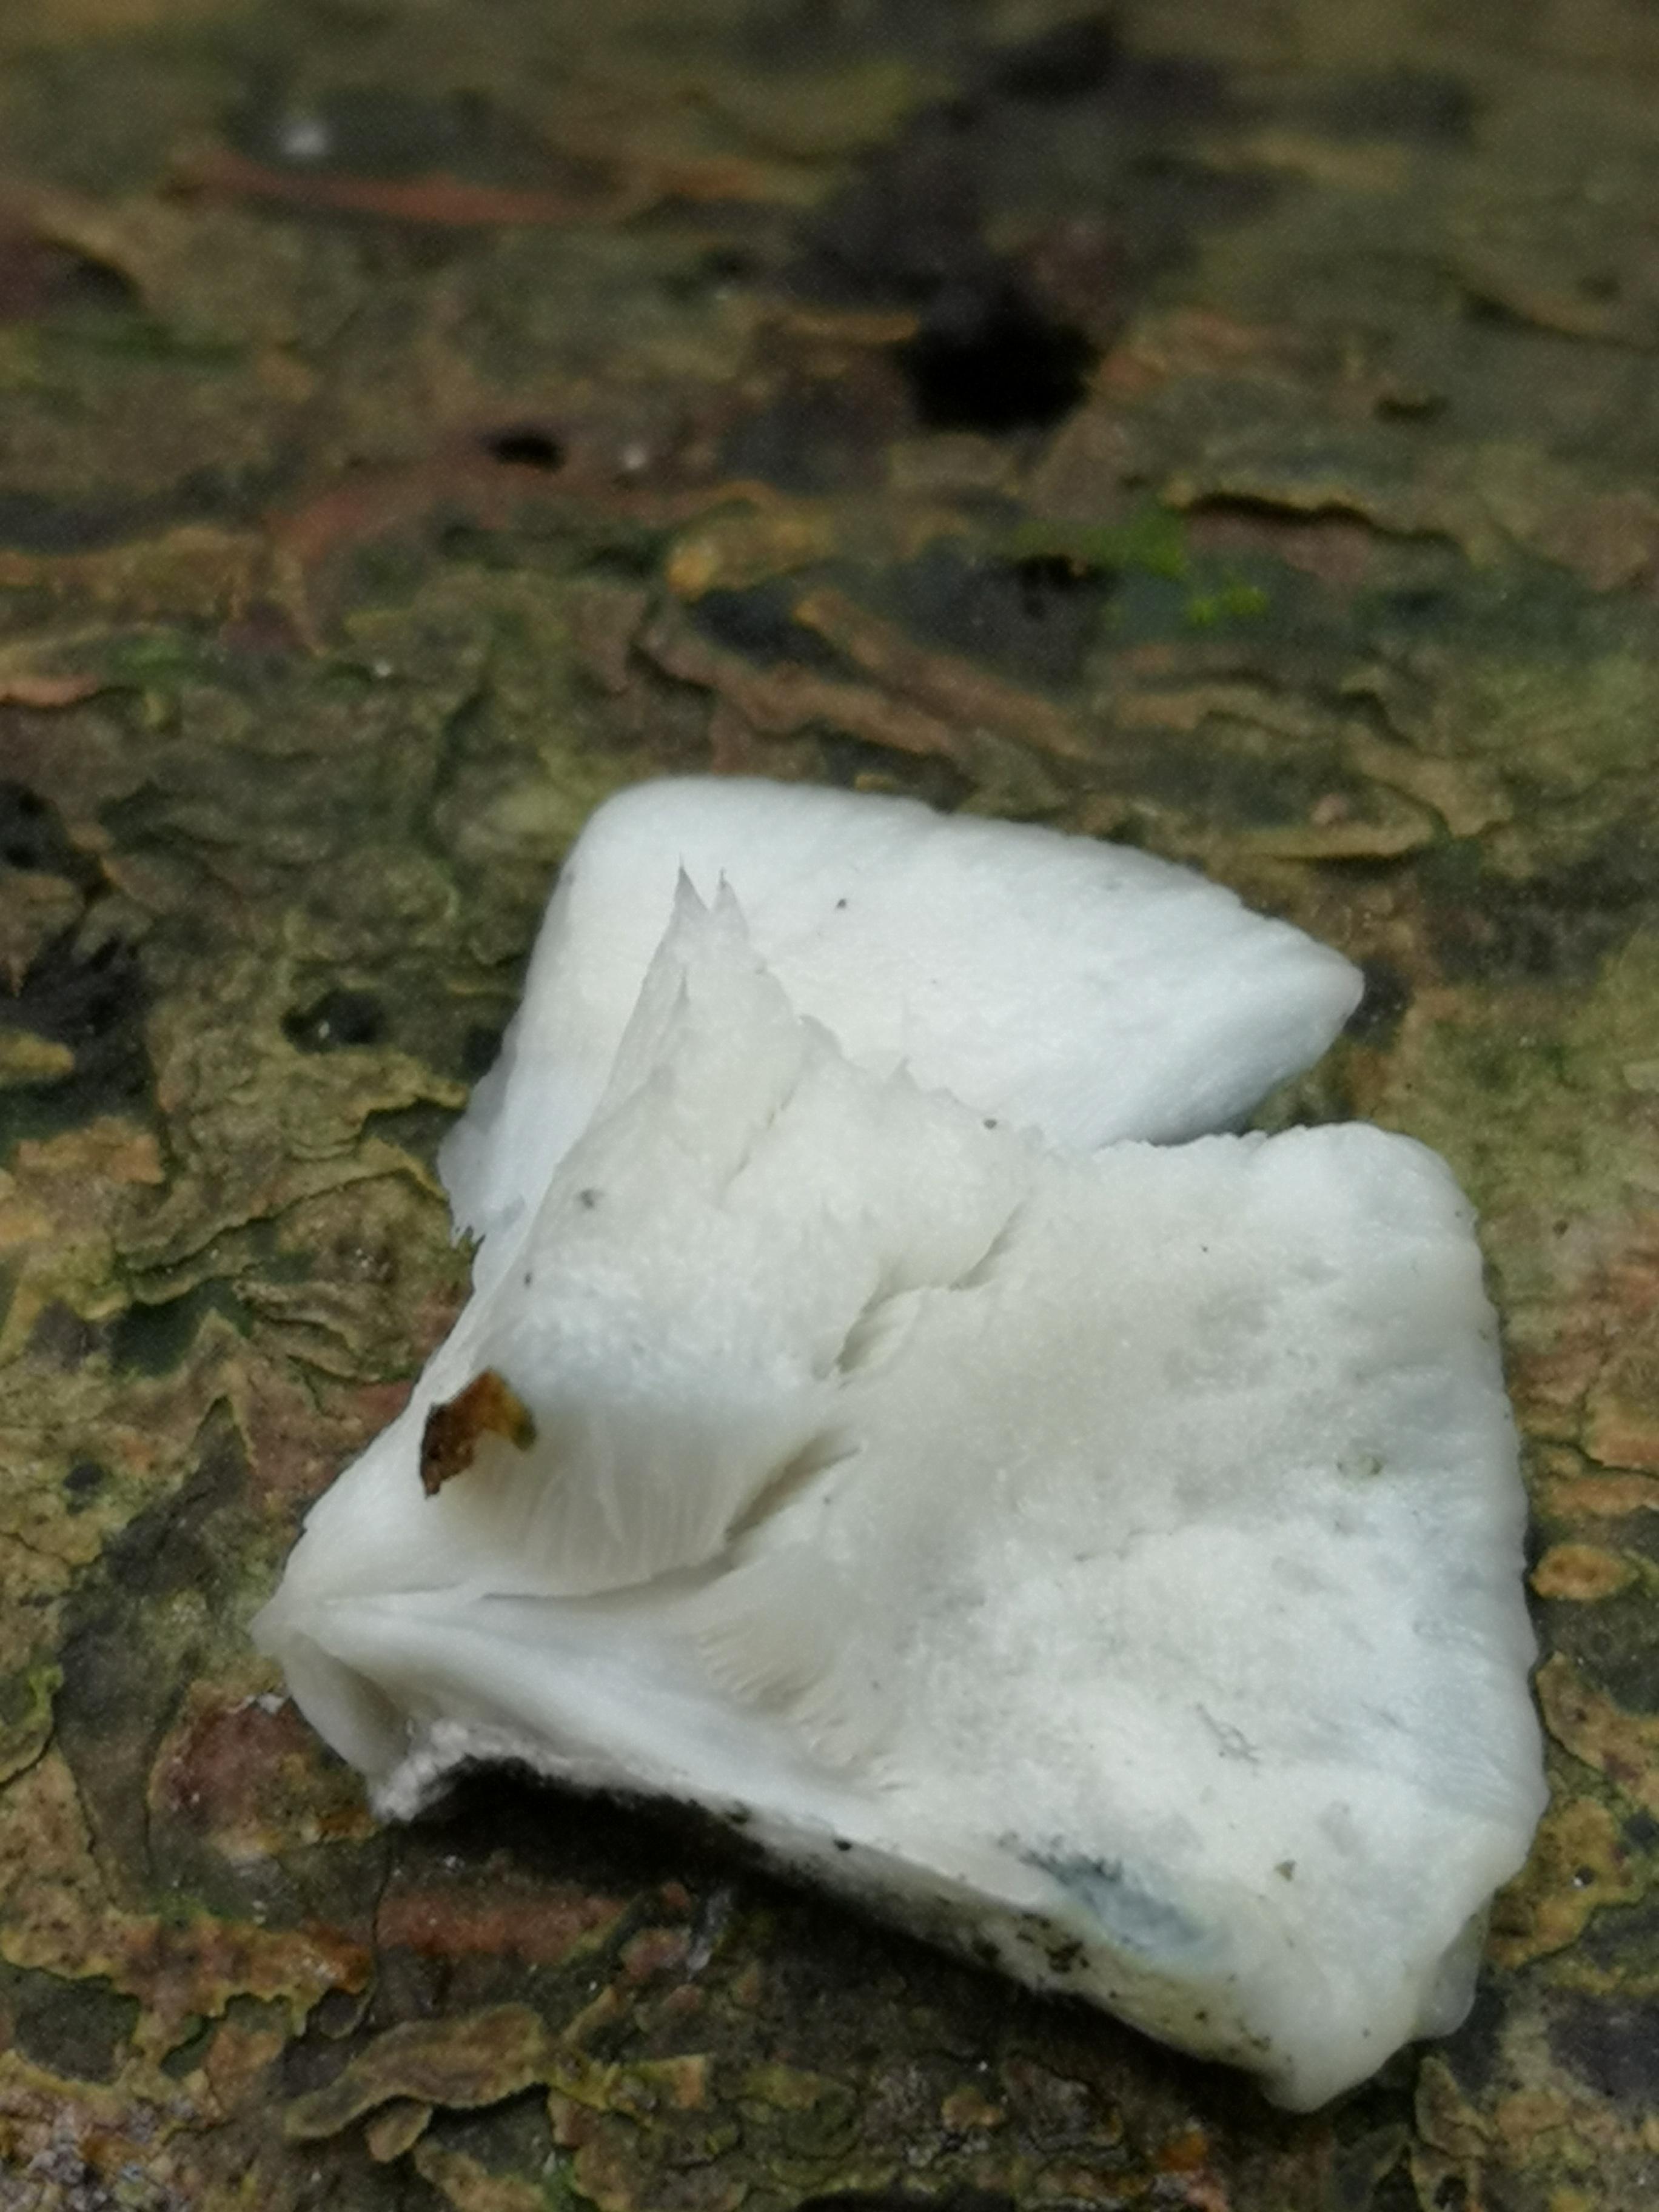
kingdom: Fungi
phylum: Basidiomycota
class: Agaricomycetes
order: Polyporales
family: Polyporaceae
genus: Cyanosporus
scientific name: Cyanosporus alni
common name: blegblå kødporesvamp
